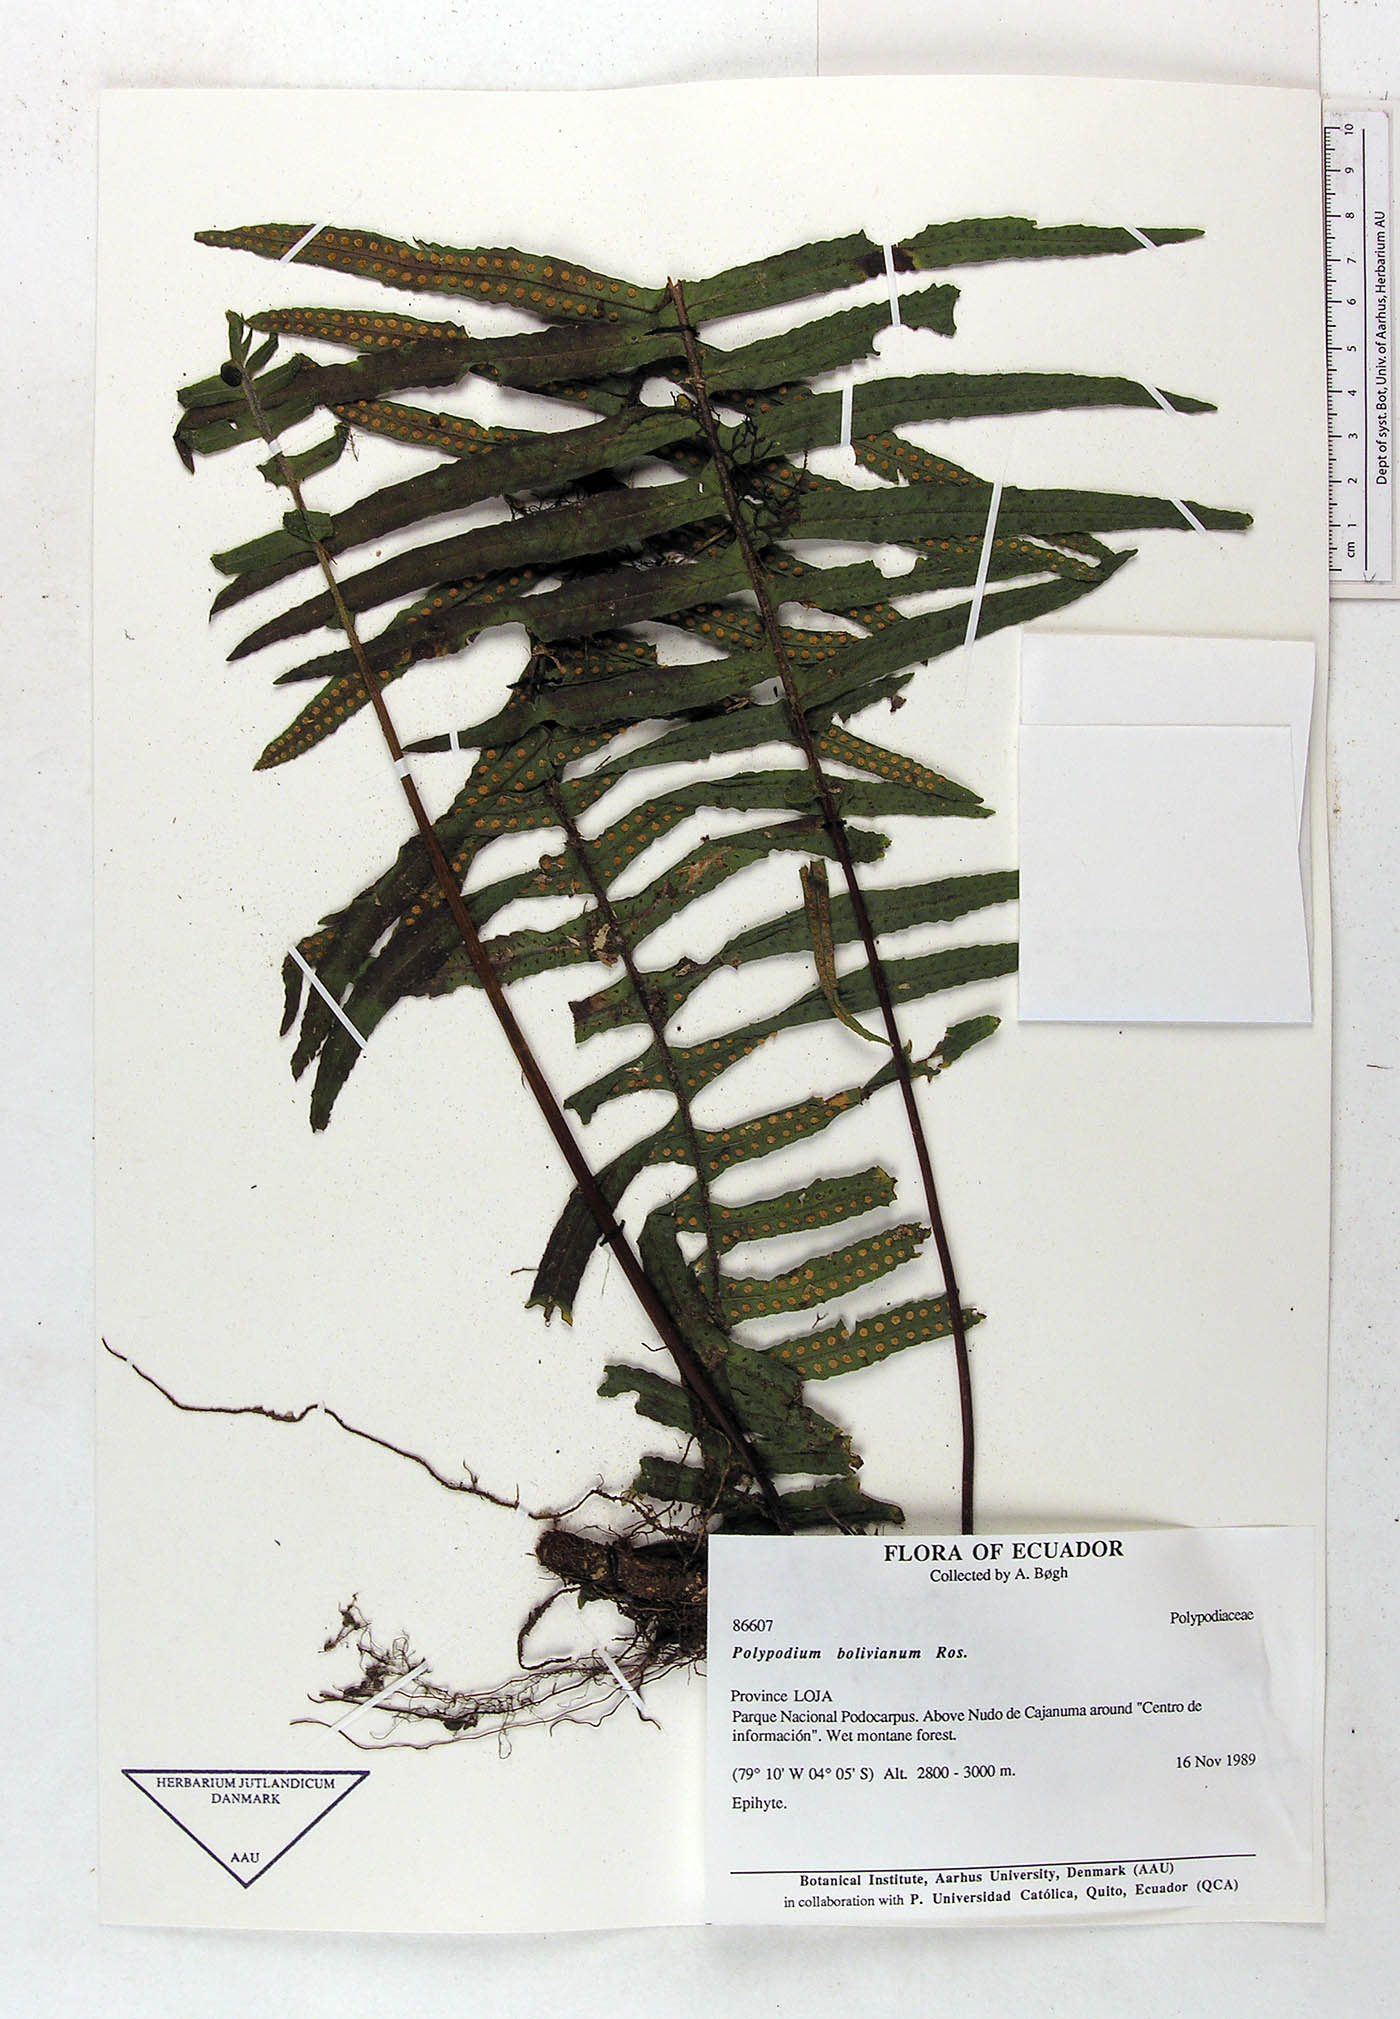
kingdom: Plantae
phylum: Tracheophyta
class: Polypodiopsida
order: Polypodiales
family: Polypodiaceae
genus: Pecluma
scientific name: Pecluma divaricata
